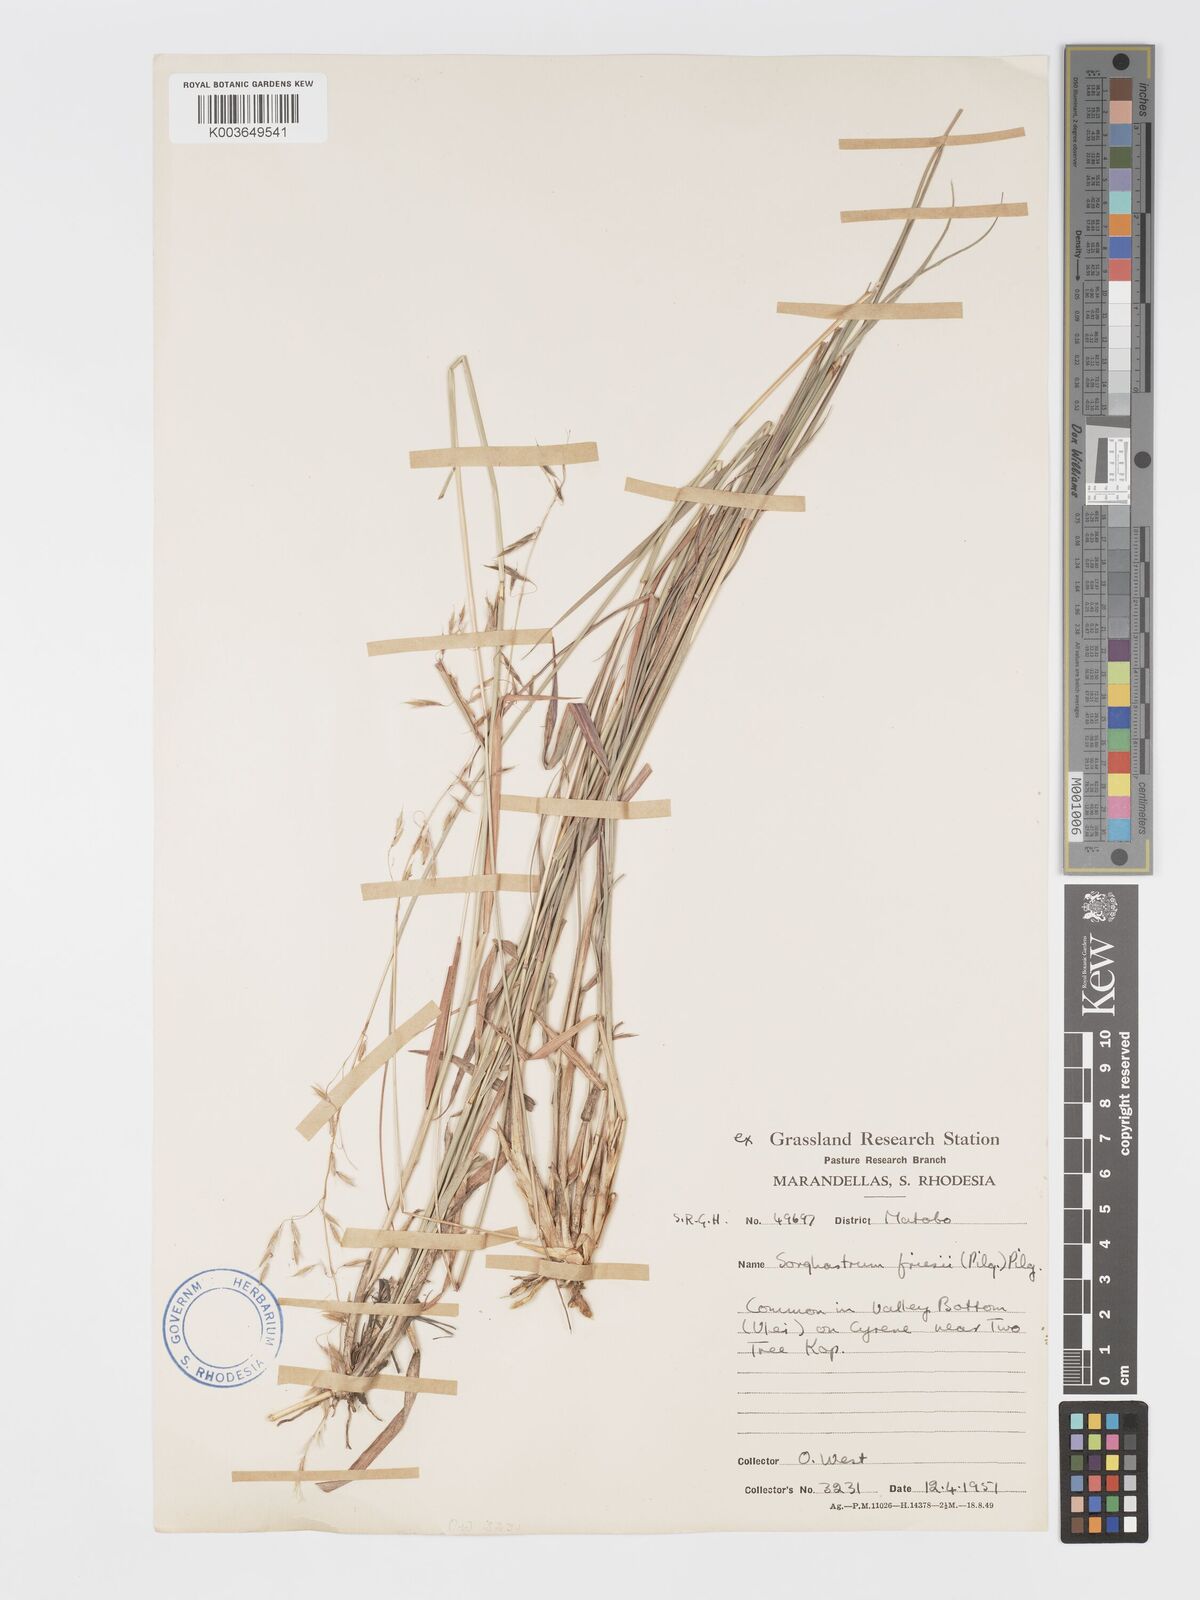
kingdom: Plantae
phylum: Tracheophyta
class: Liliopsida
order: Poales
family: Poaceae
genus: Sorghastrum
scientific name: Sorghastrum nudipes
